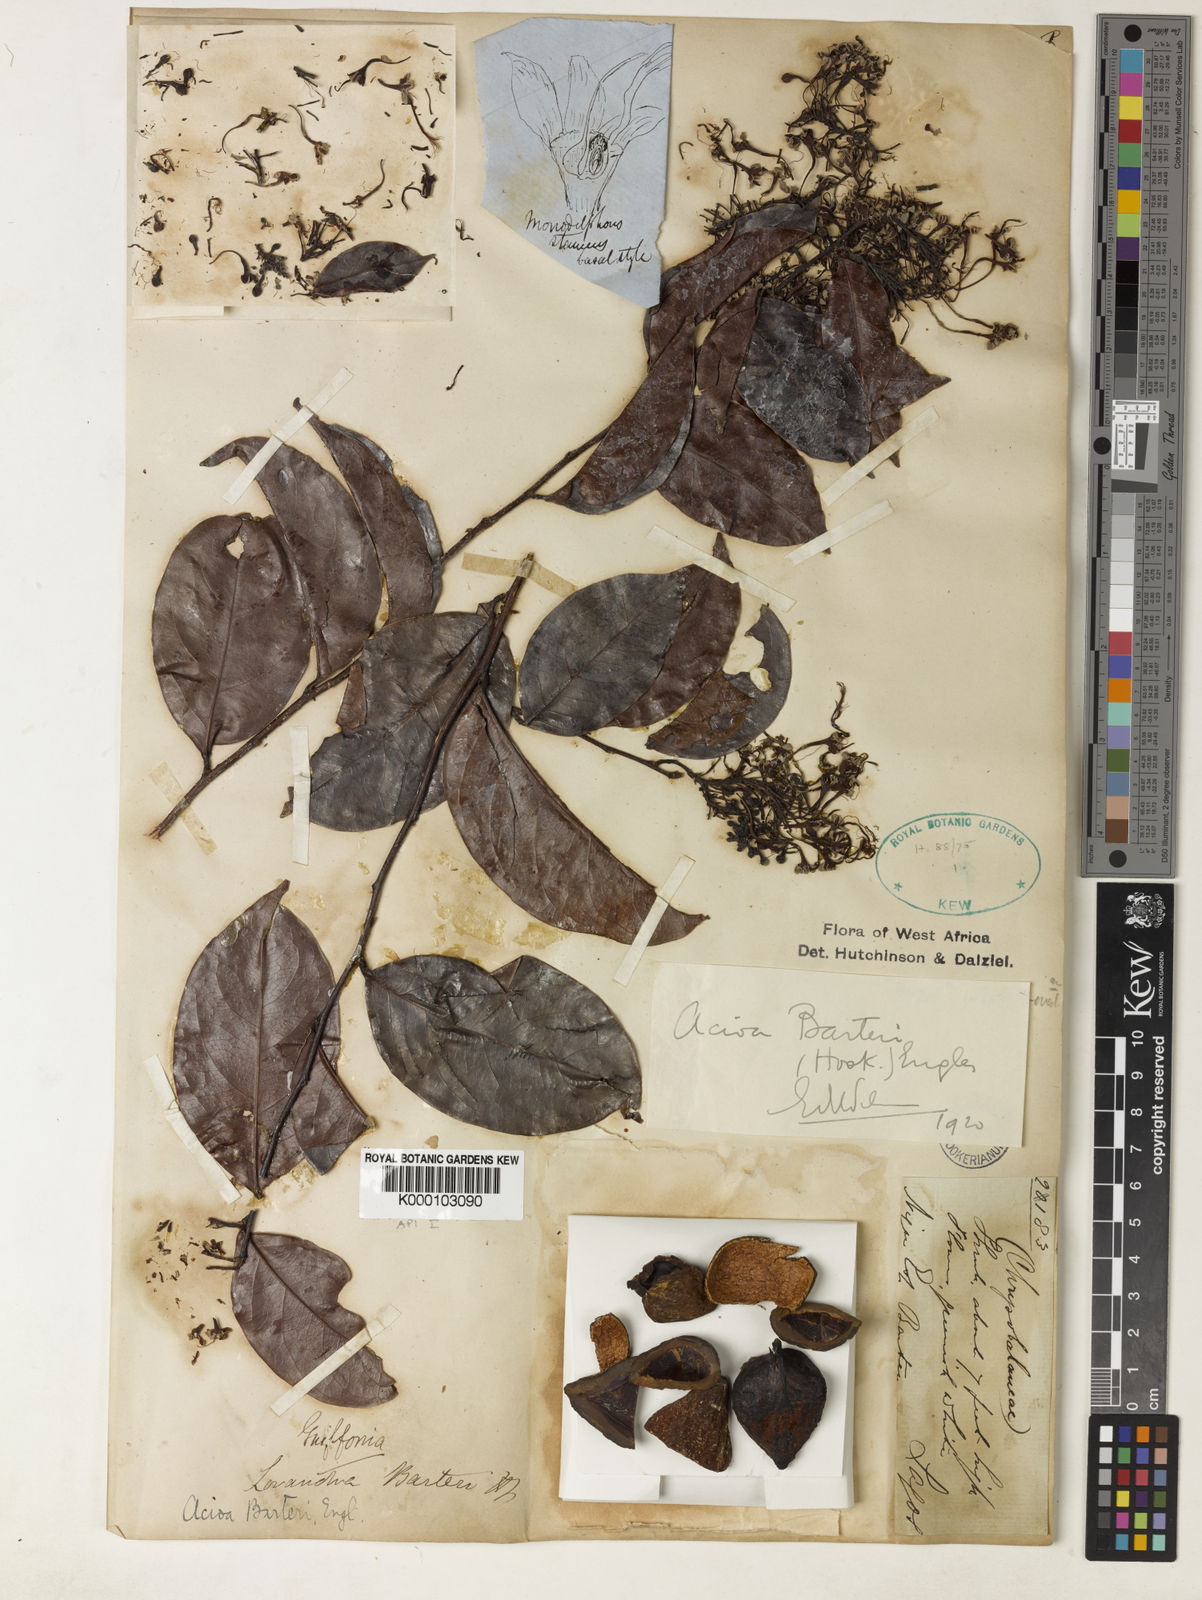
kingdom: Plantae
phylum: Tracheophyta
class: Magnoliopsida
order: Malpighiales
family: Chrysobalanaceae
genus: Dactyladenia
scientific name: Dactyladenia barteri
